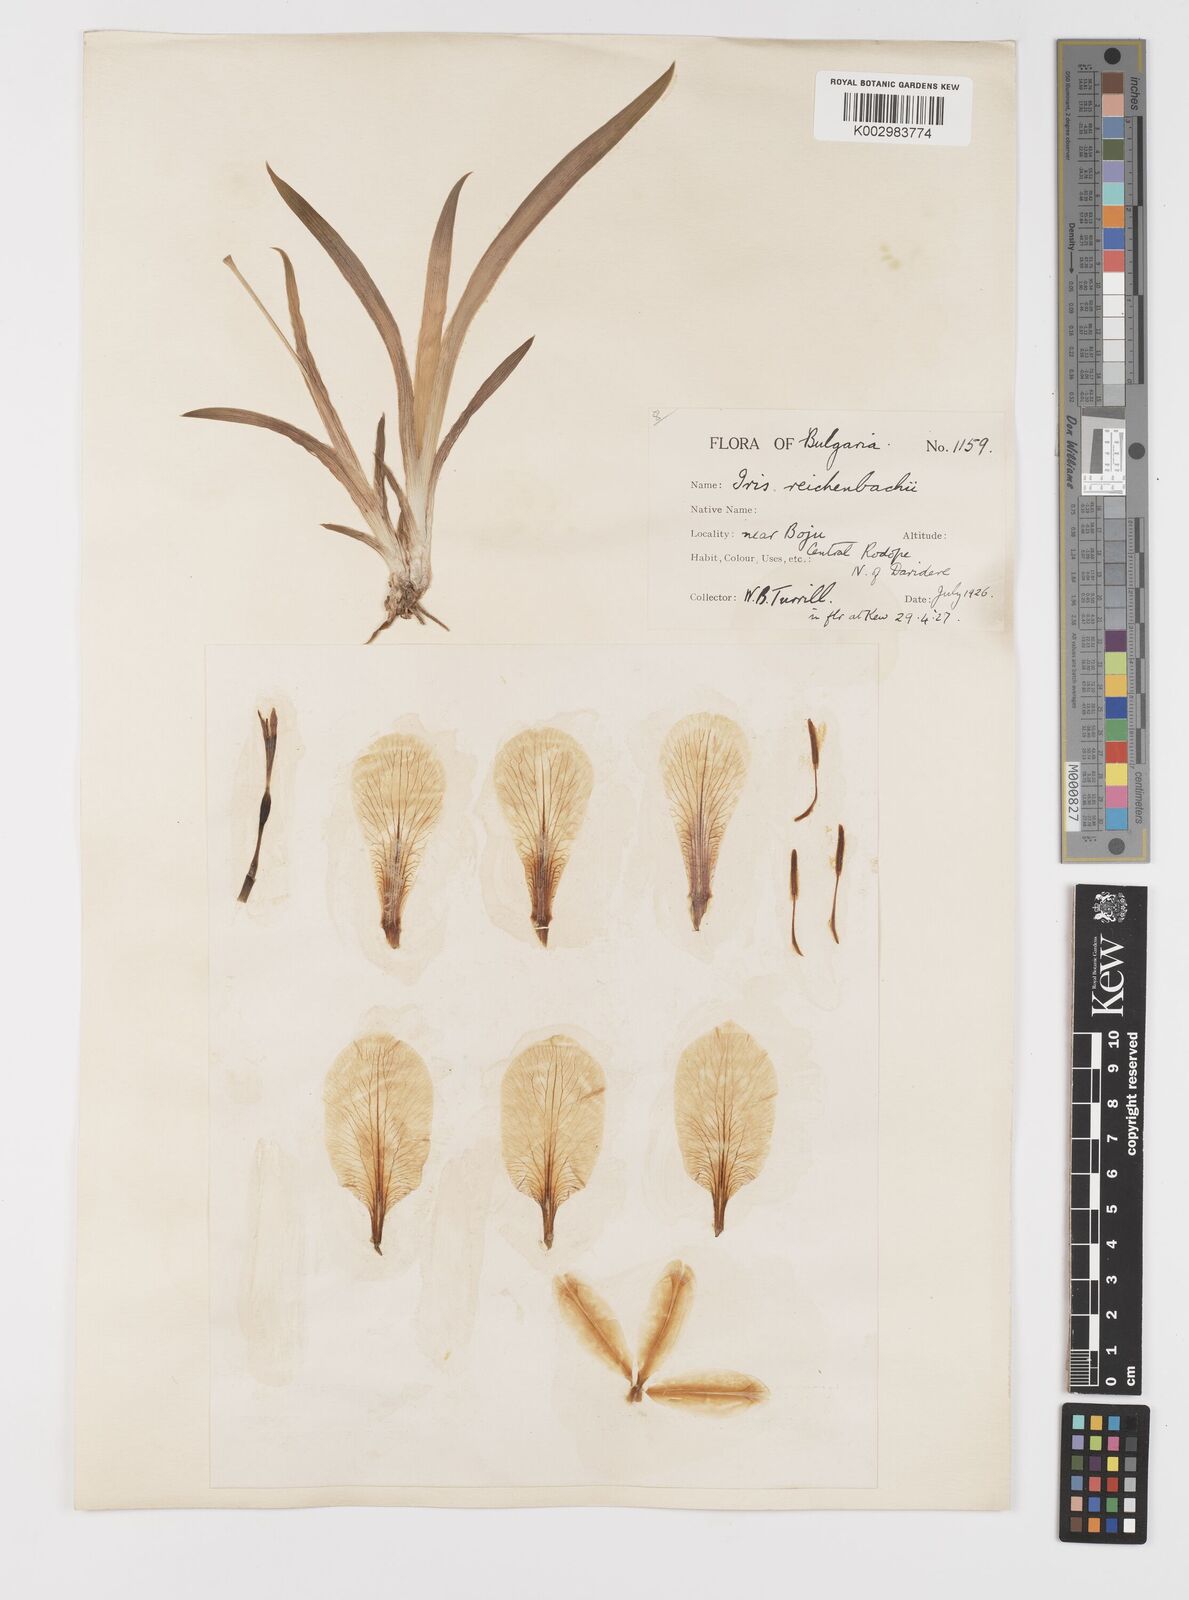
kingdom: Plantae
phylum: Tracheophyta
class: Liliopsida
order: Asparagales
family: Iridaceae
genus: Iris
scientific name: Iris reichenbachii
